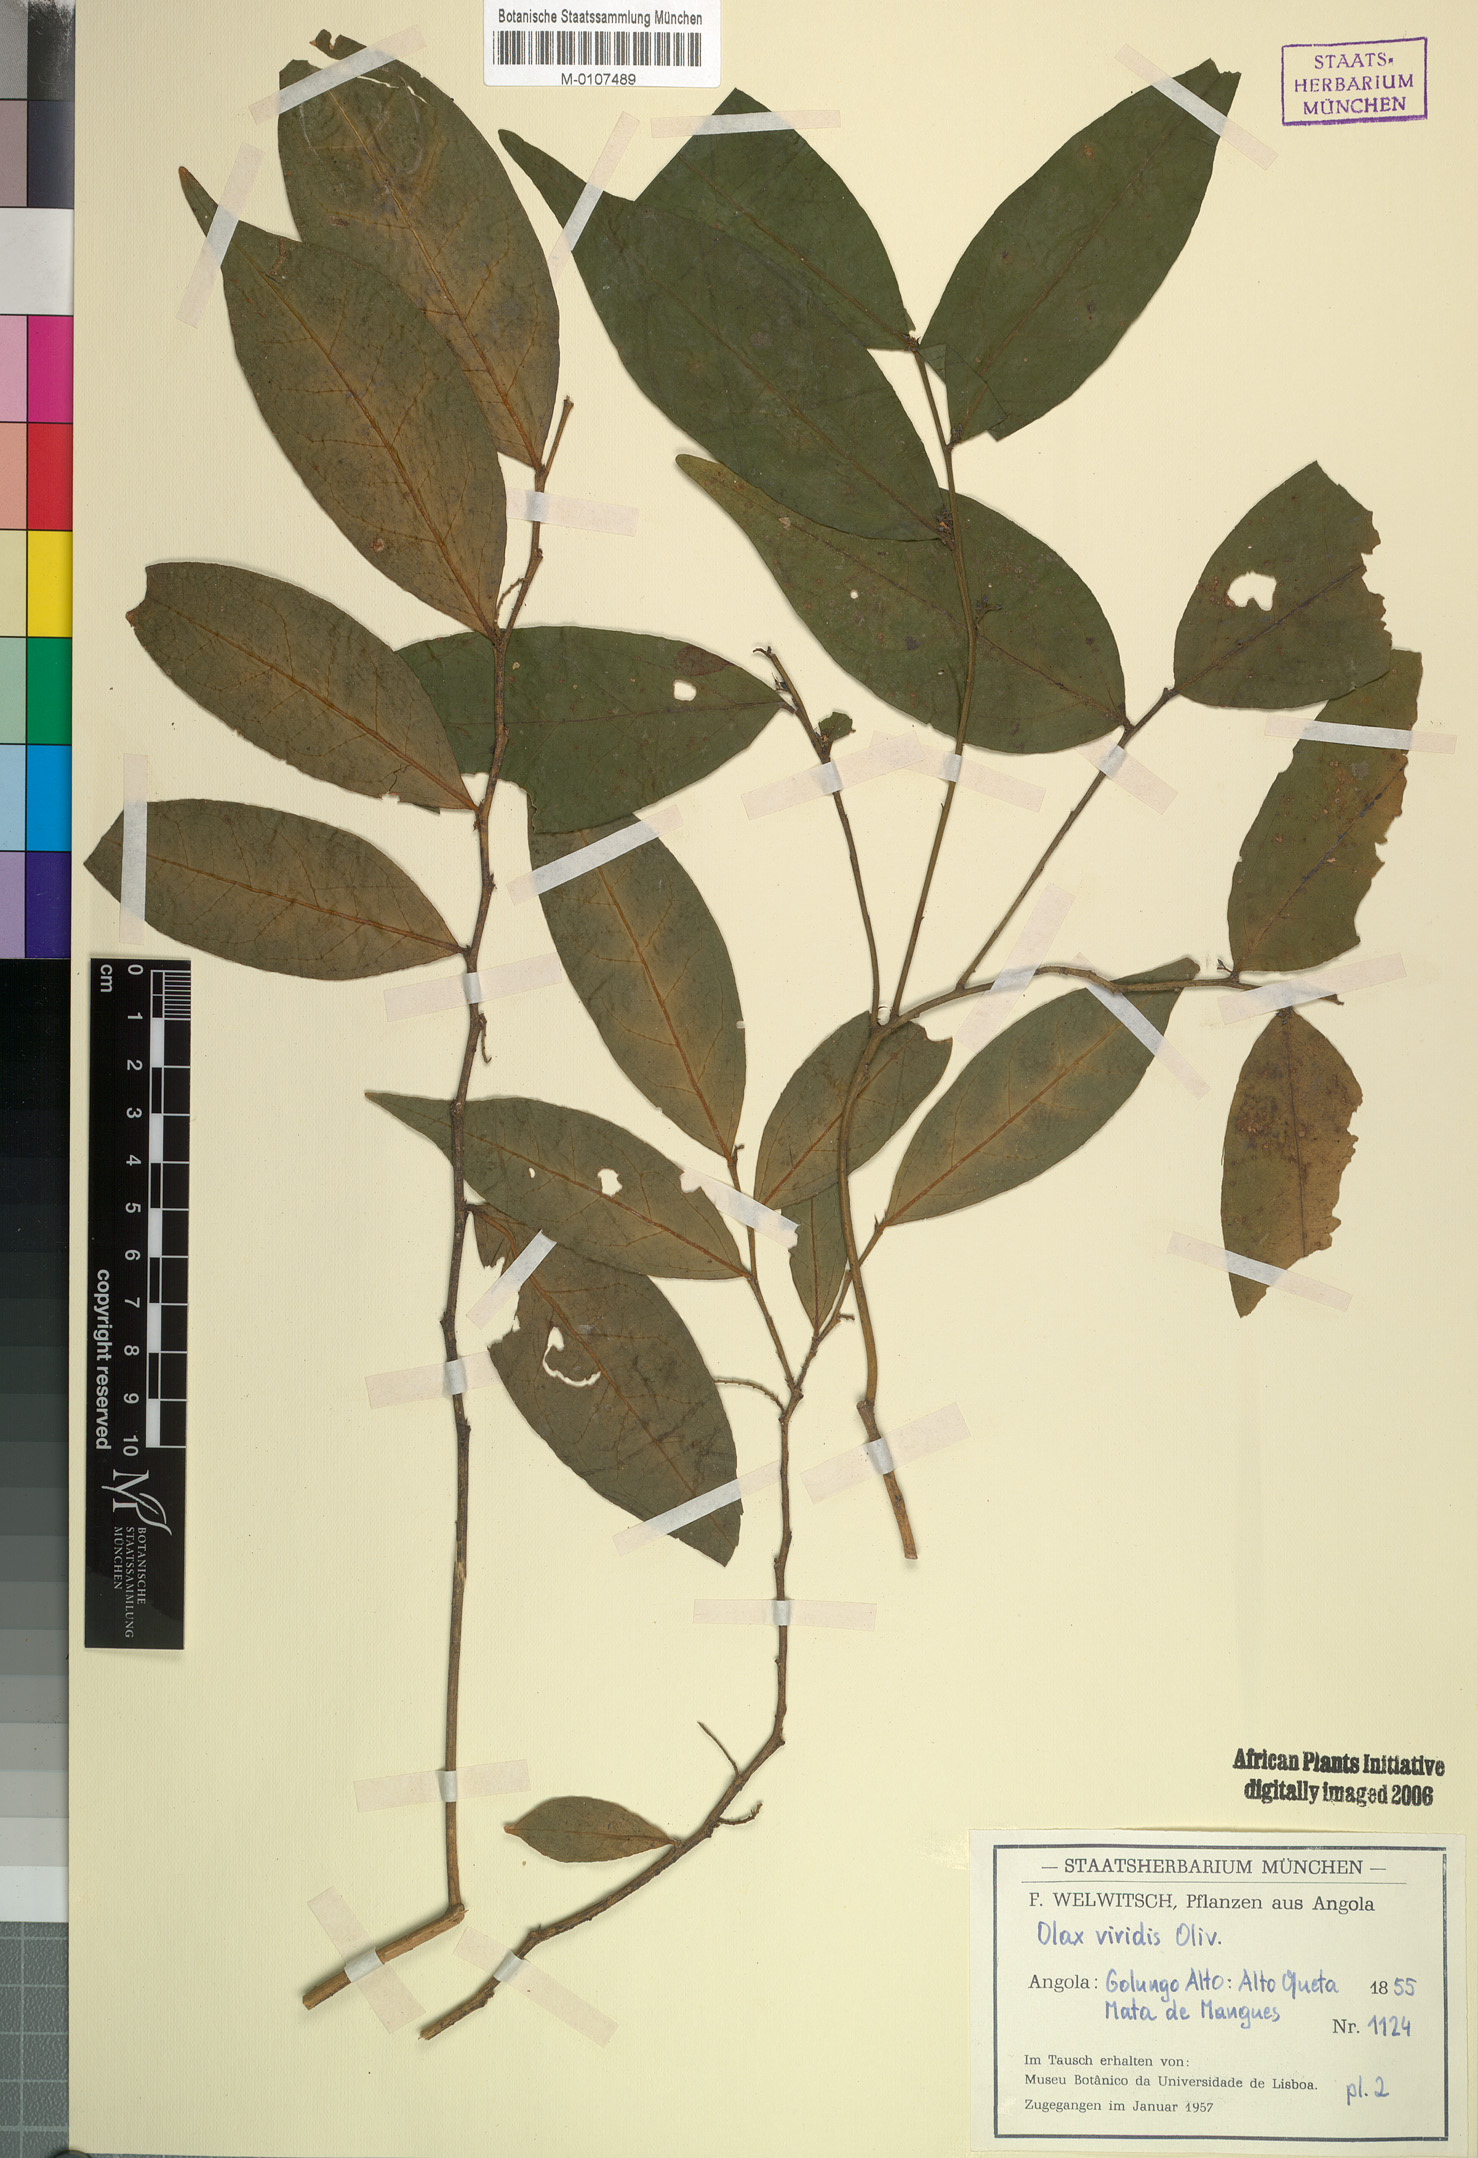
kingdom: Plantae
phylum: Tracheophyta
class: Magnoliopsida
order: Santalales
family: Olacaceae
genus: Olax
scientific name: Olax gambecola
